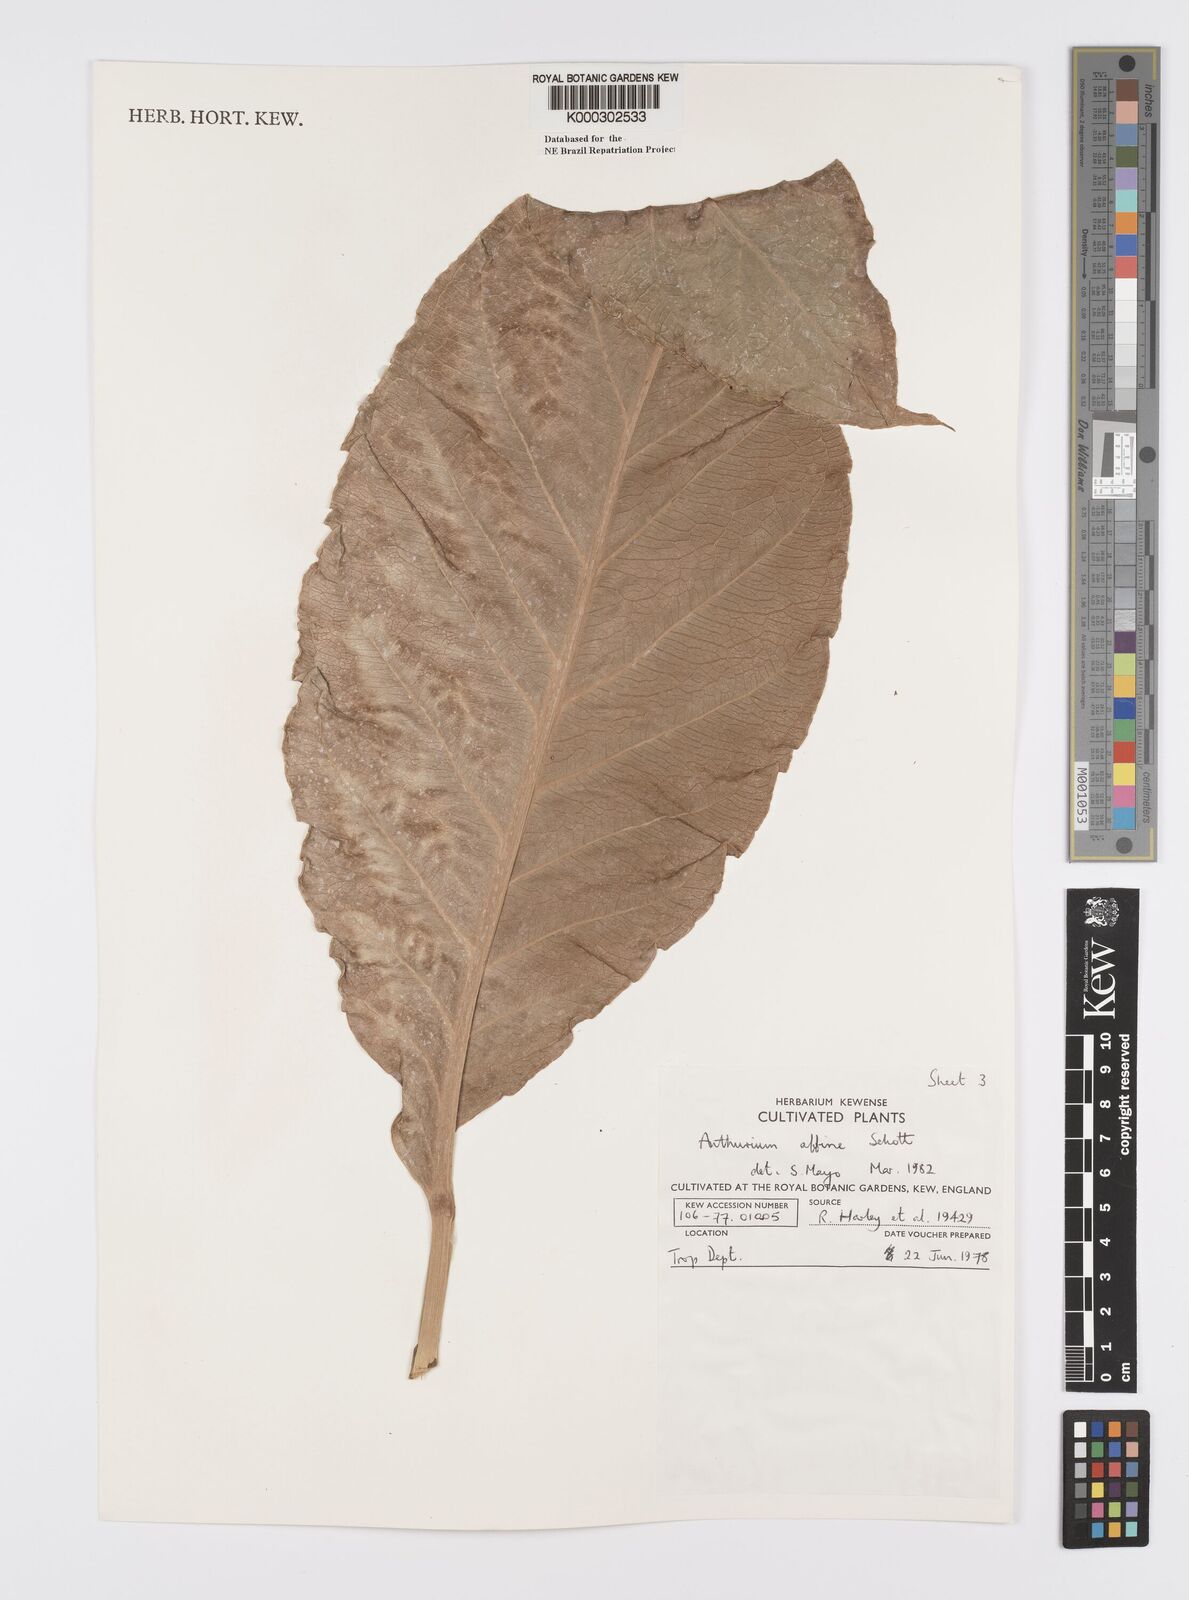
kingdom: Plantae
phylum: Tracheophyta
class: Liliopsida
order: Alismatales
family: Araceae
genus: Anthurium
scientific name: Anthurium affine
